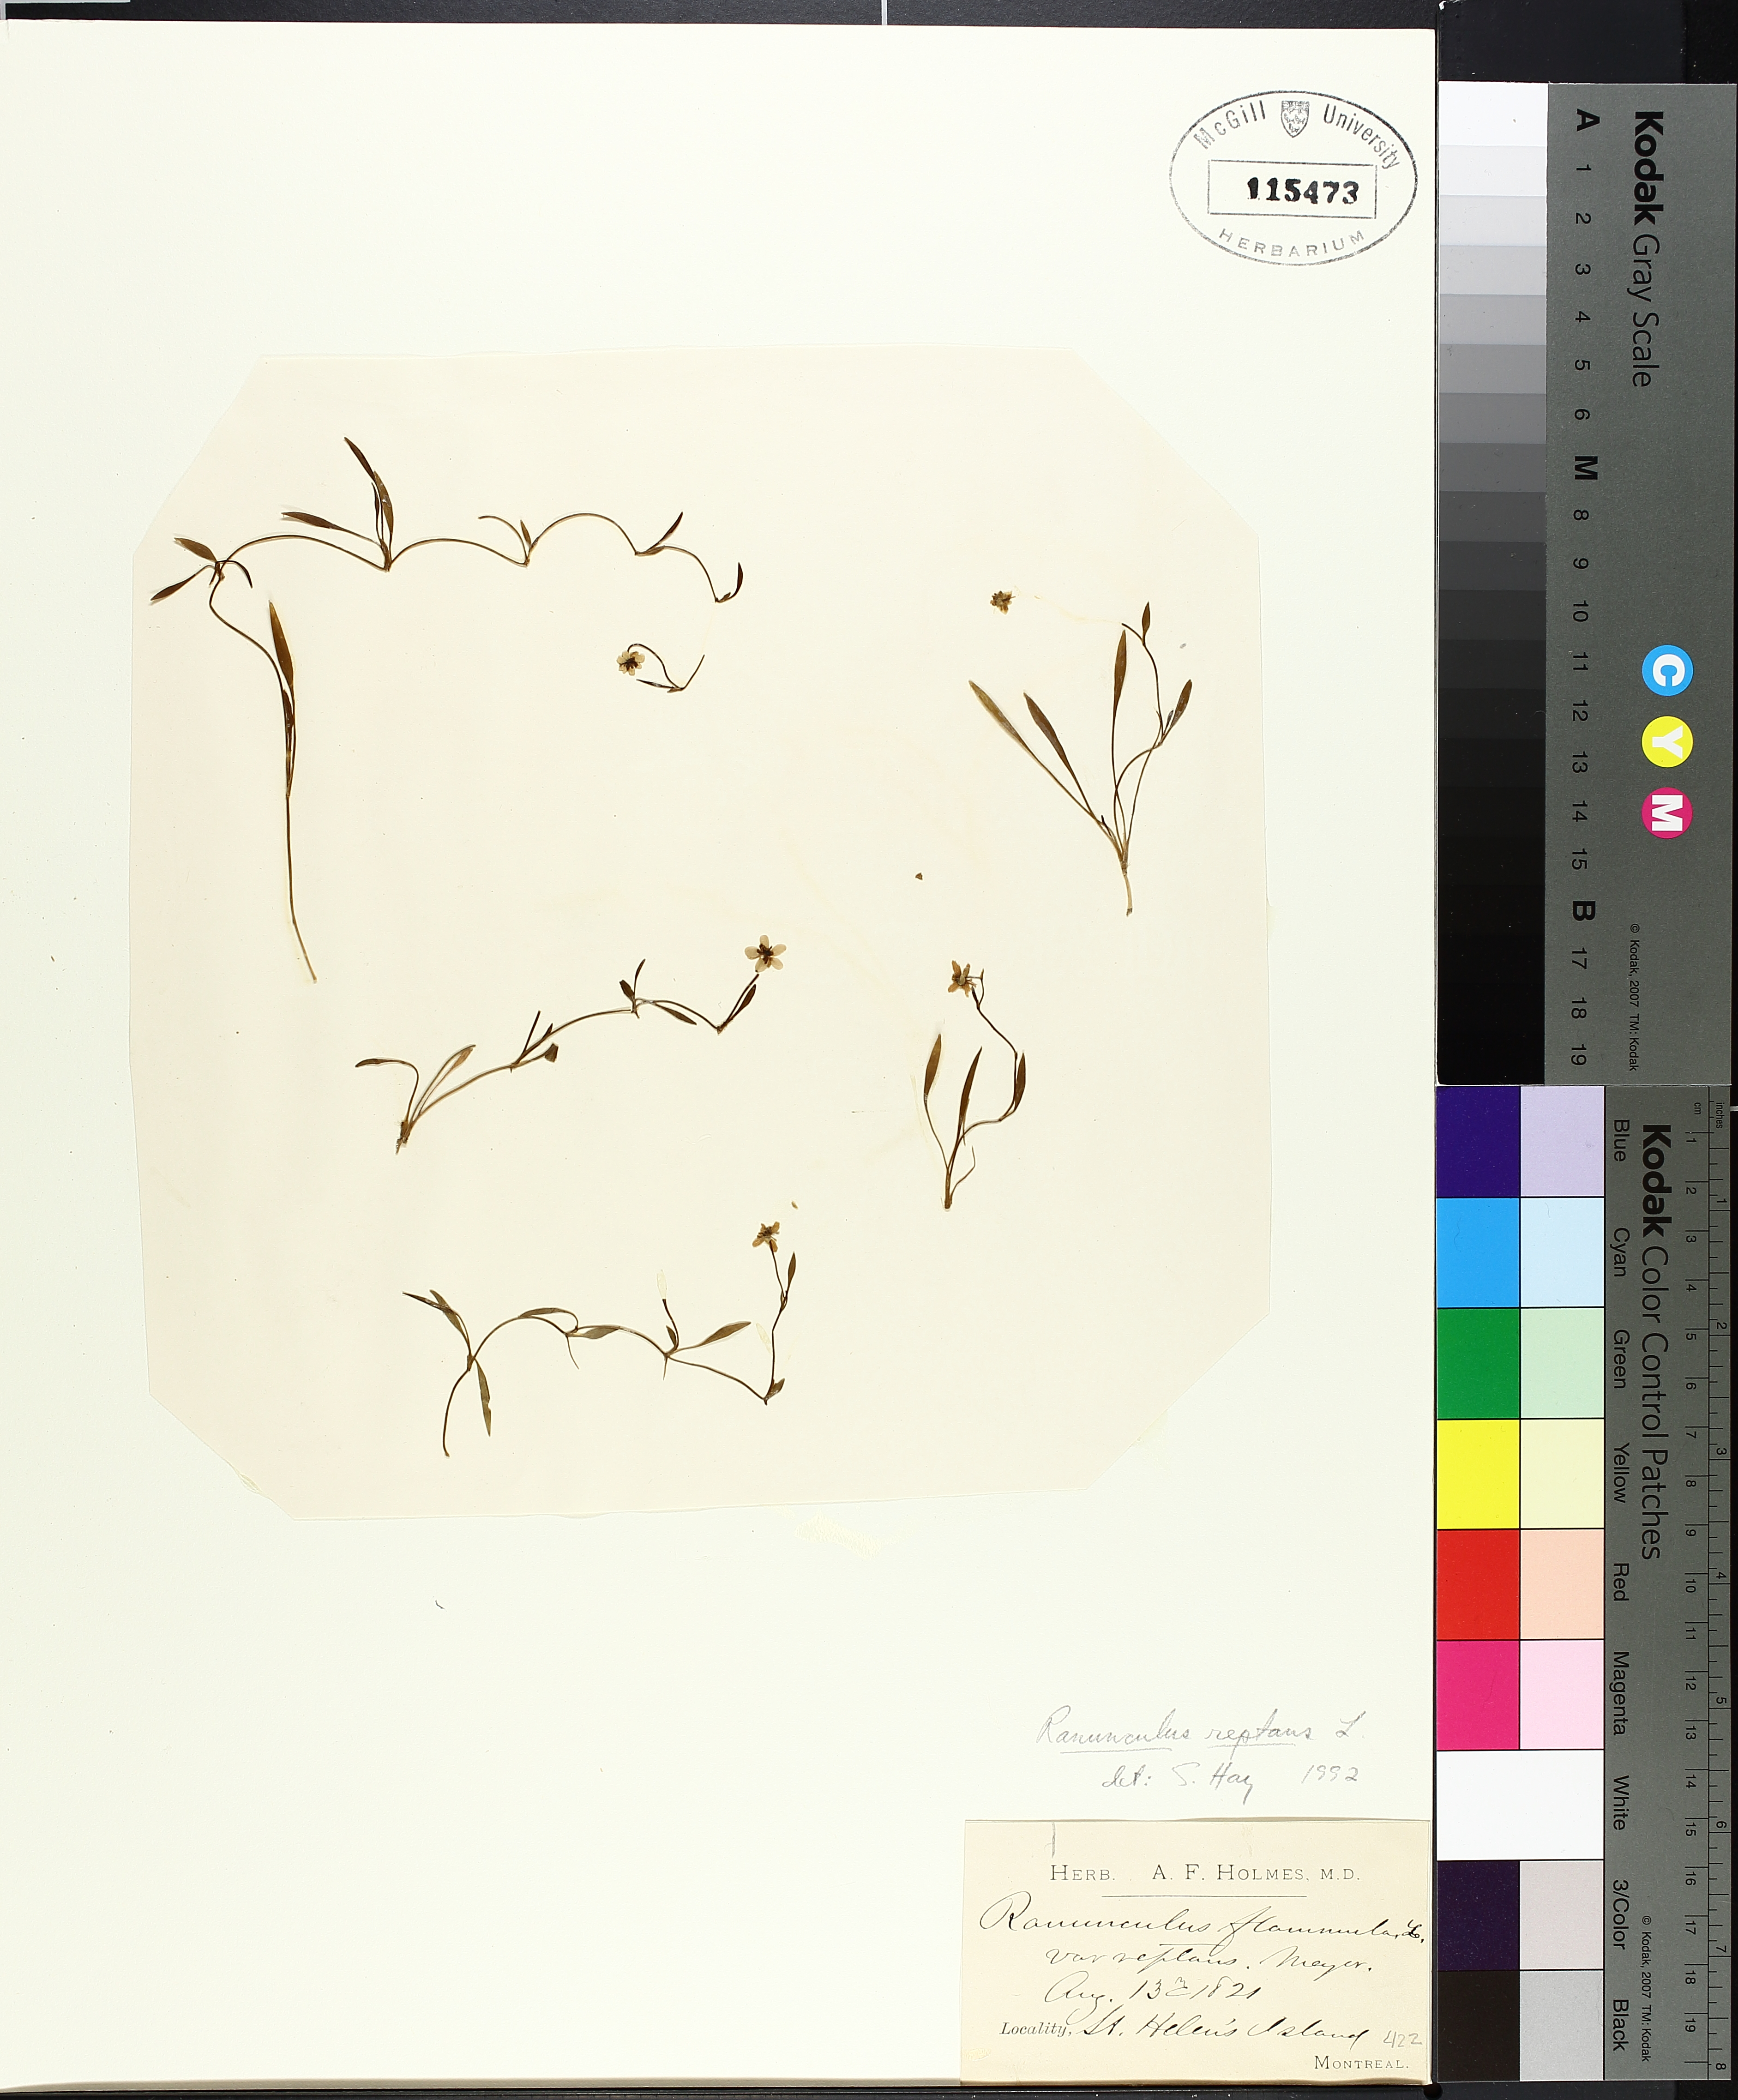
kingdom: Plantae
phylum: Tracheophyta
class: Magnoliopsida
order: Ranunculales
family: Ranunculaceae
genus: Ranunculus
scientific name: Ranunculus reptans
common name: Creeping spearwort
